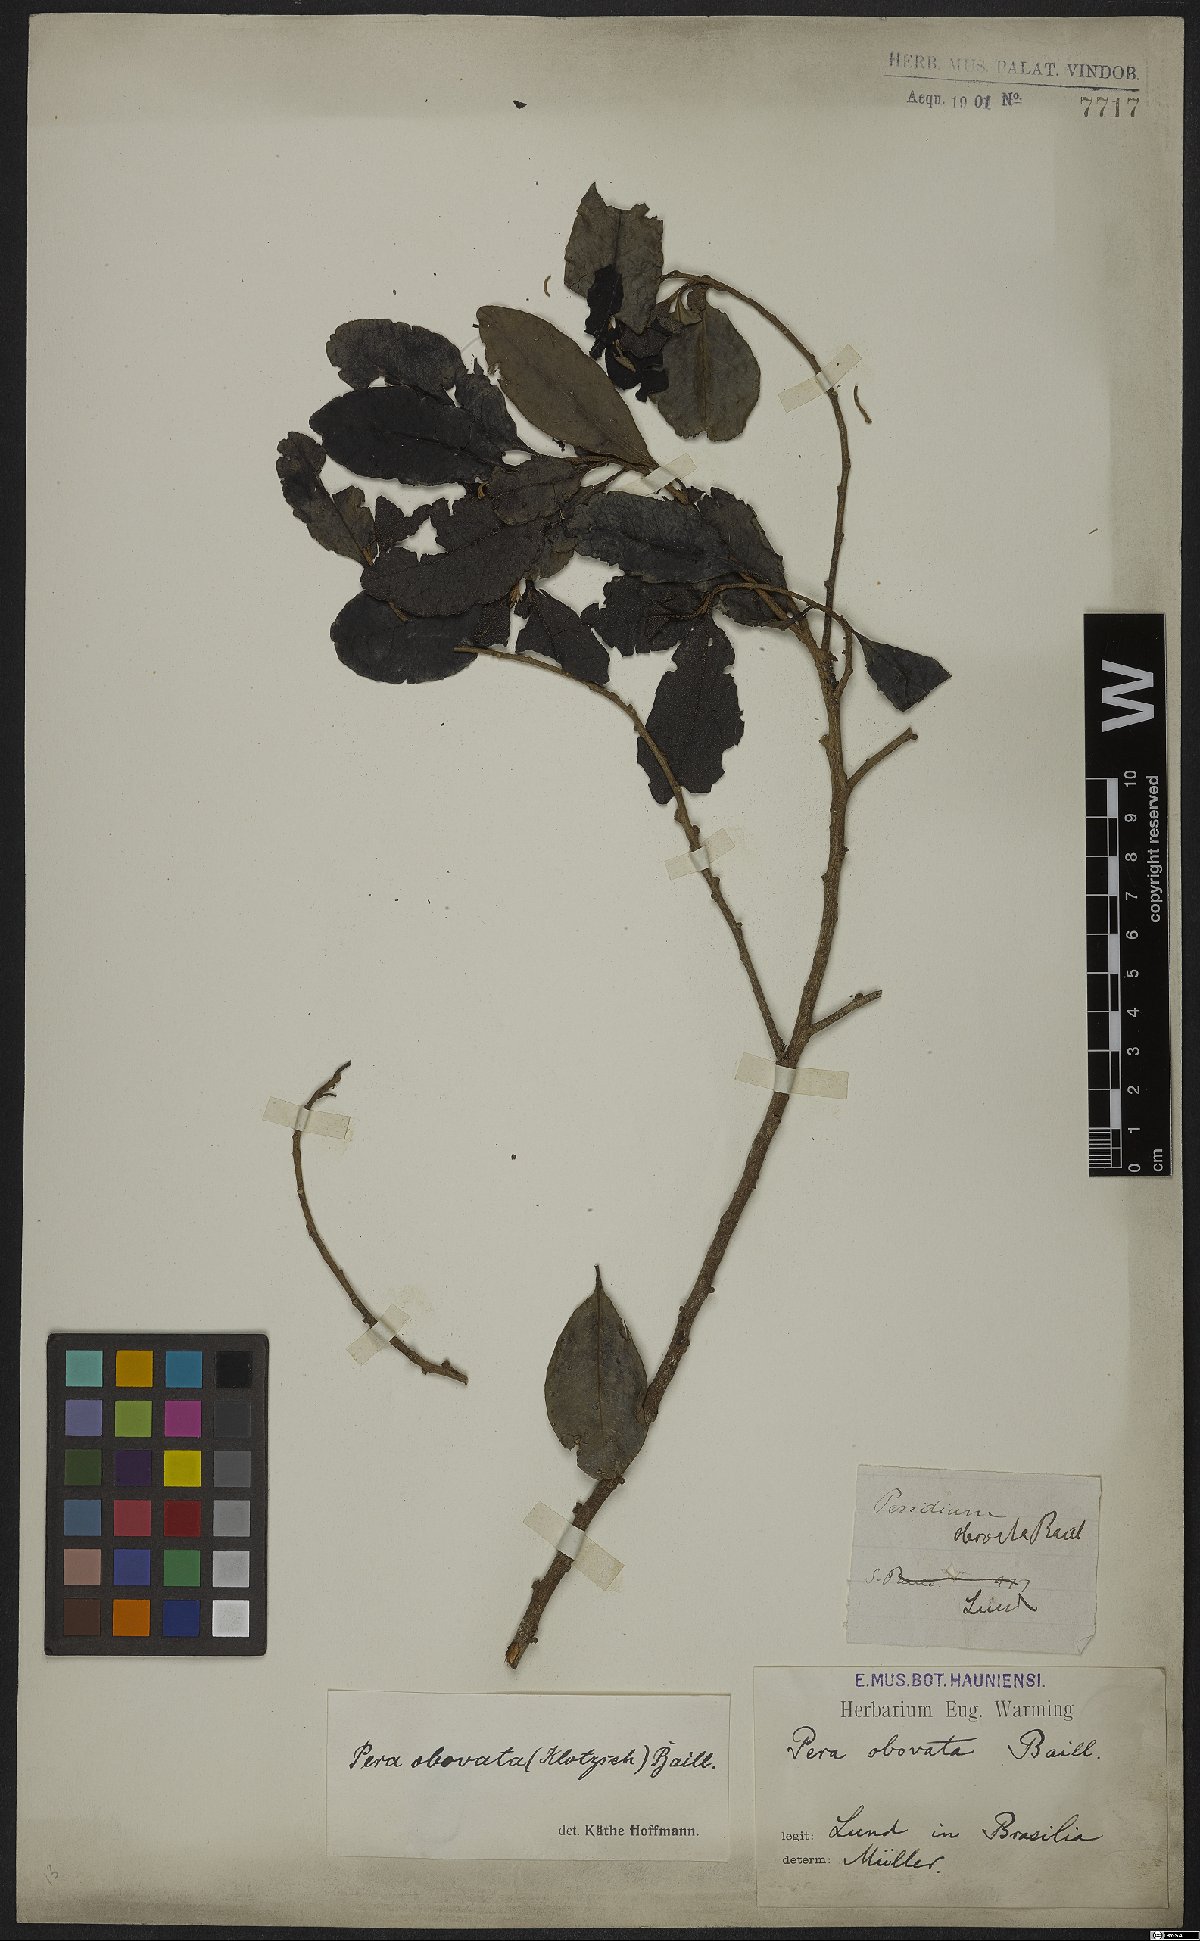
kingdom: Plantae
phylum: Tracheophyta
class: Magnoliopsida
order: Malpighiales
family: Peraceae
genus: Pera
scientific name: Pera glabrata
